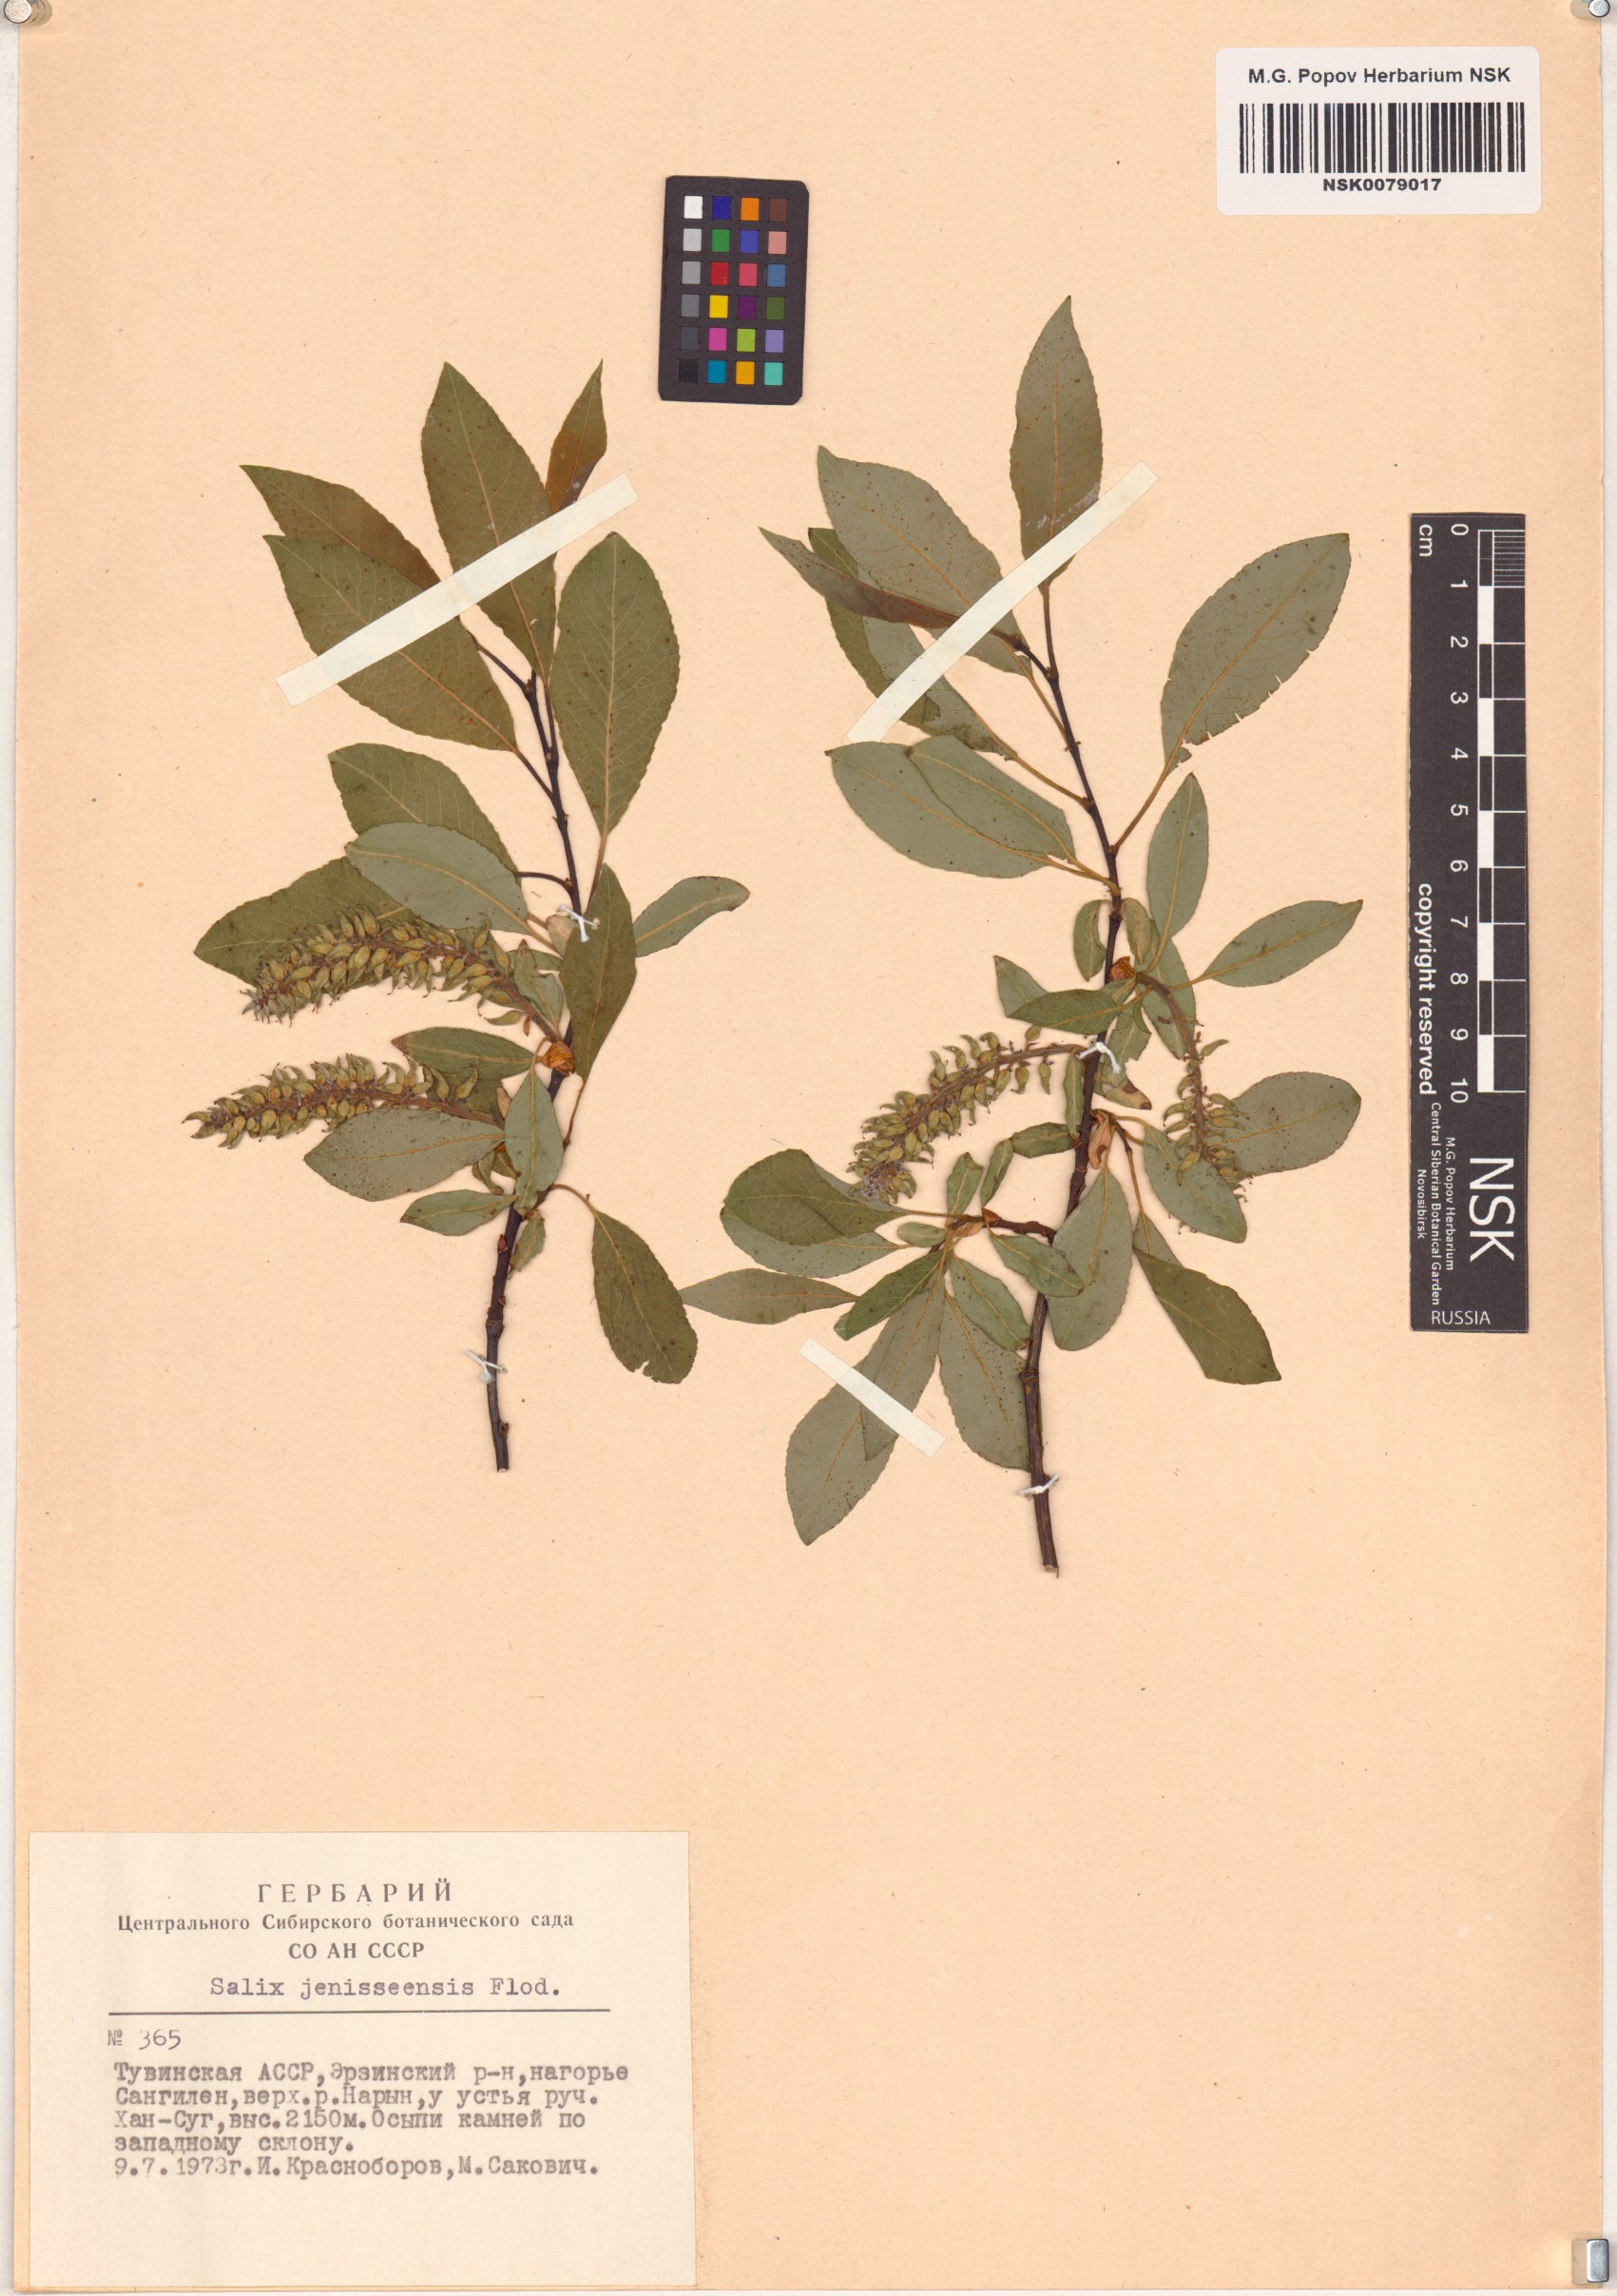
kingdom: Plantae
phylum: Tracheophyta
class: Magnoliopsida
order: Malpighiales
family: Salicaceae
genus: Salix
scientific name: Salix jenisseensis
